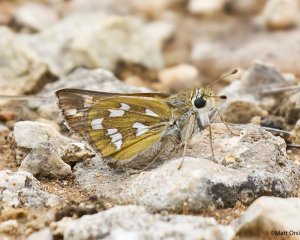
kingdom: Animalia
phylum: Arthropoda
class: Insecta
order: Lepidoptera
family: Hesperiidae
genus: Hesperia
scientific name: Hesperia viridis
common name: Green Skipper
